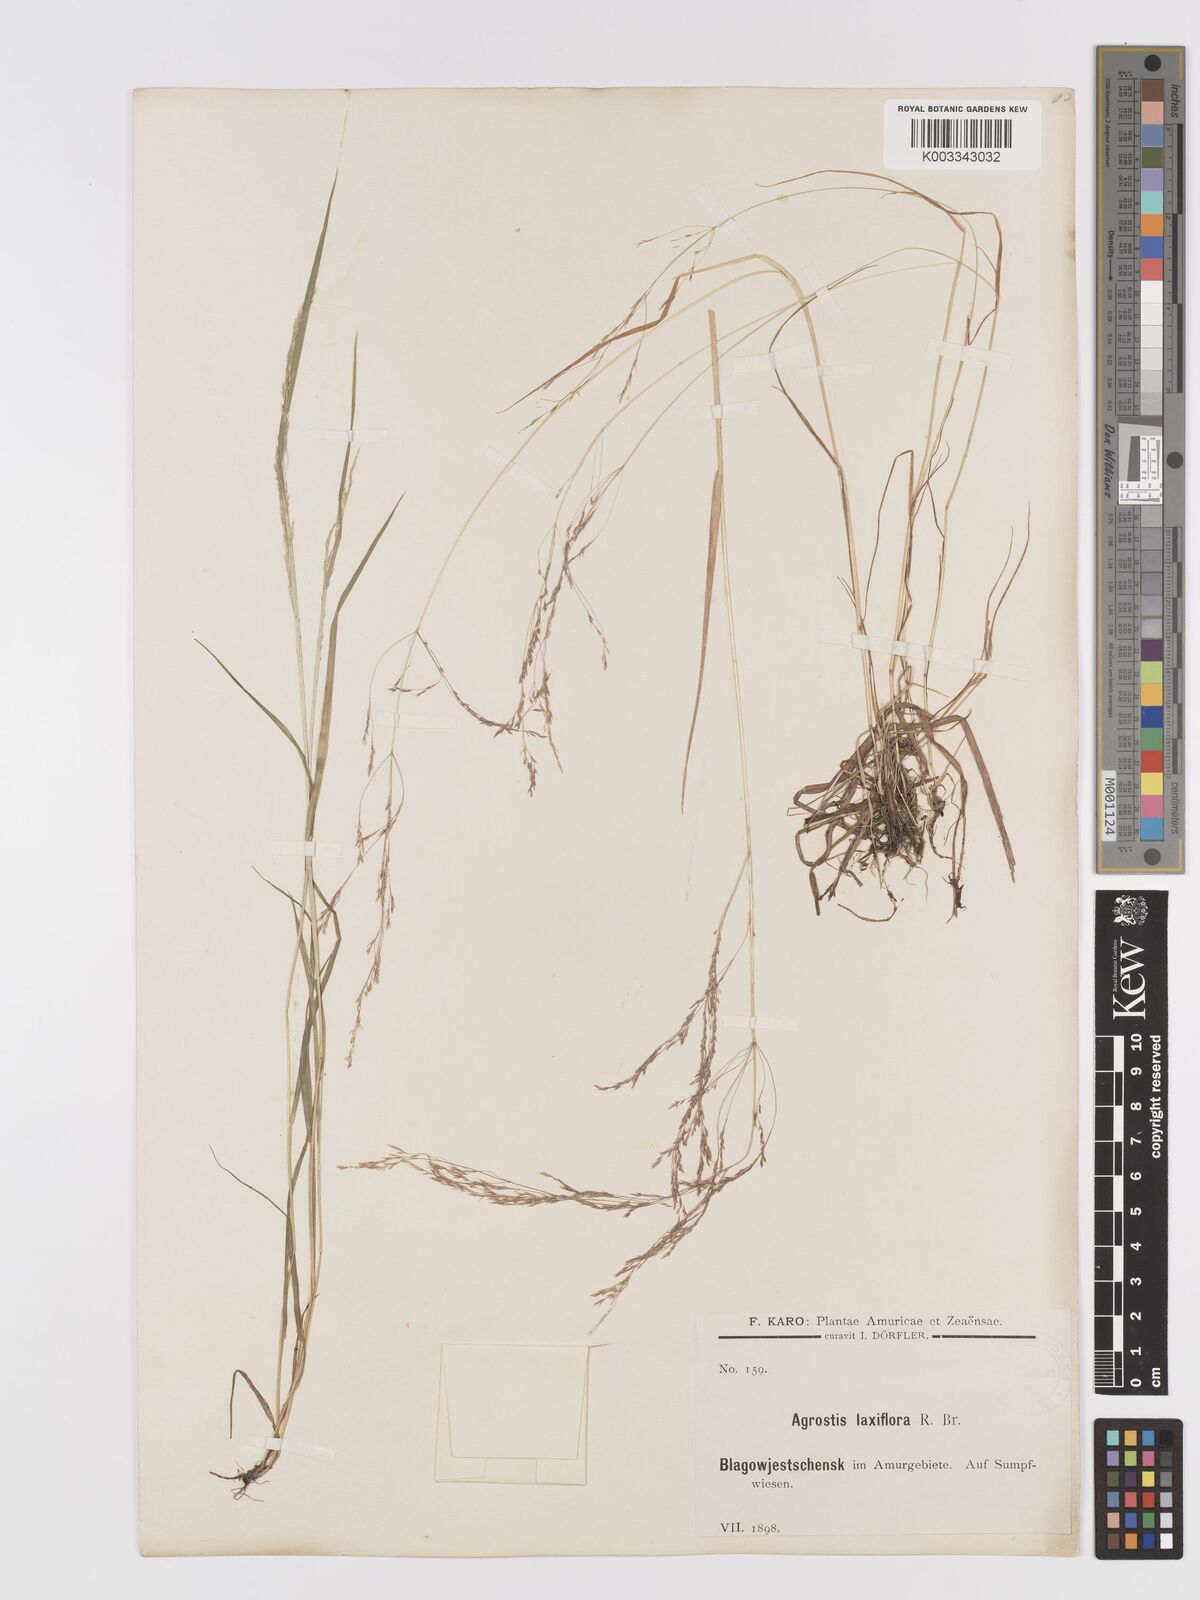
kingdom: Plantae
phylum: Tracheophyta
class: Liliopsida
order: Poales
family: Poaceae
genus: Agrostis
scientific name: Agrostis clavata
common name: Clavate bent
